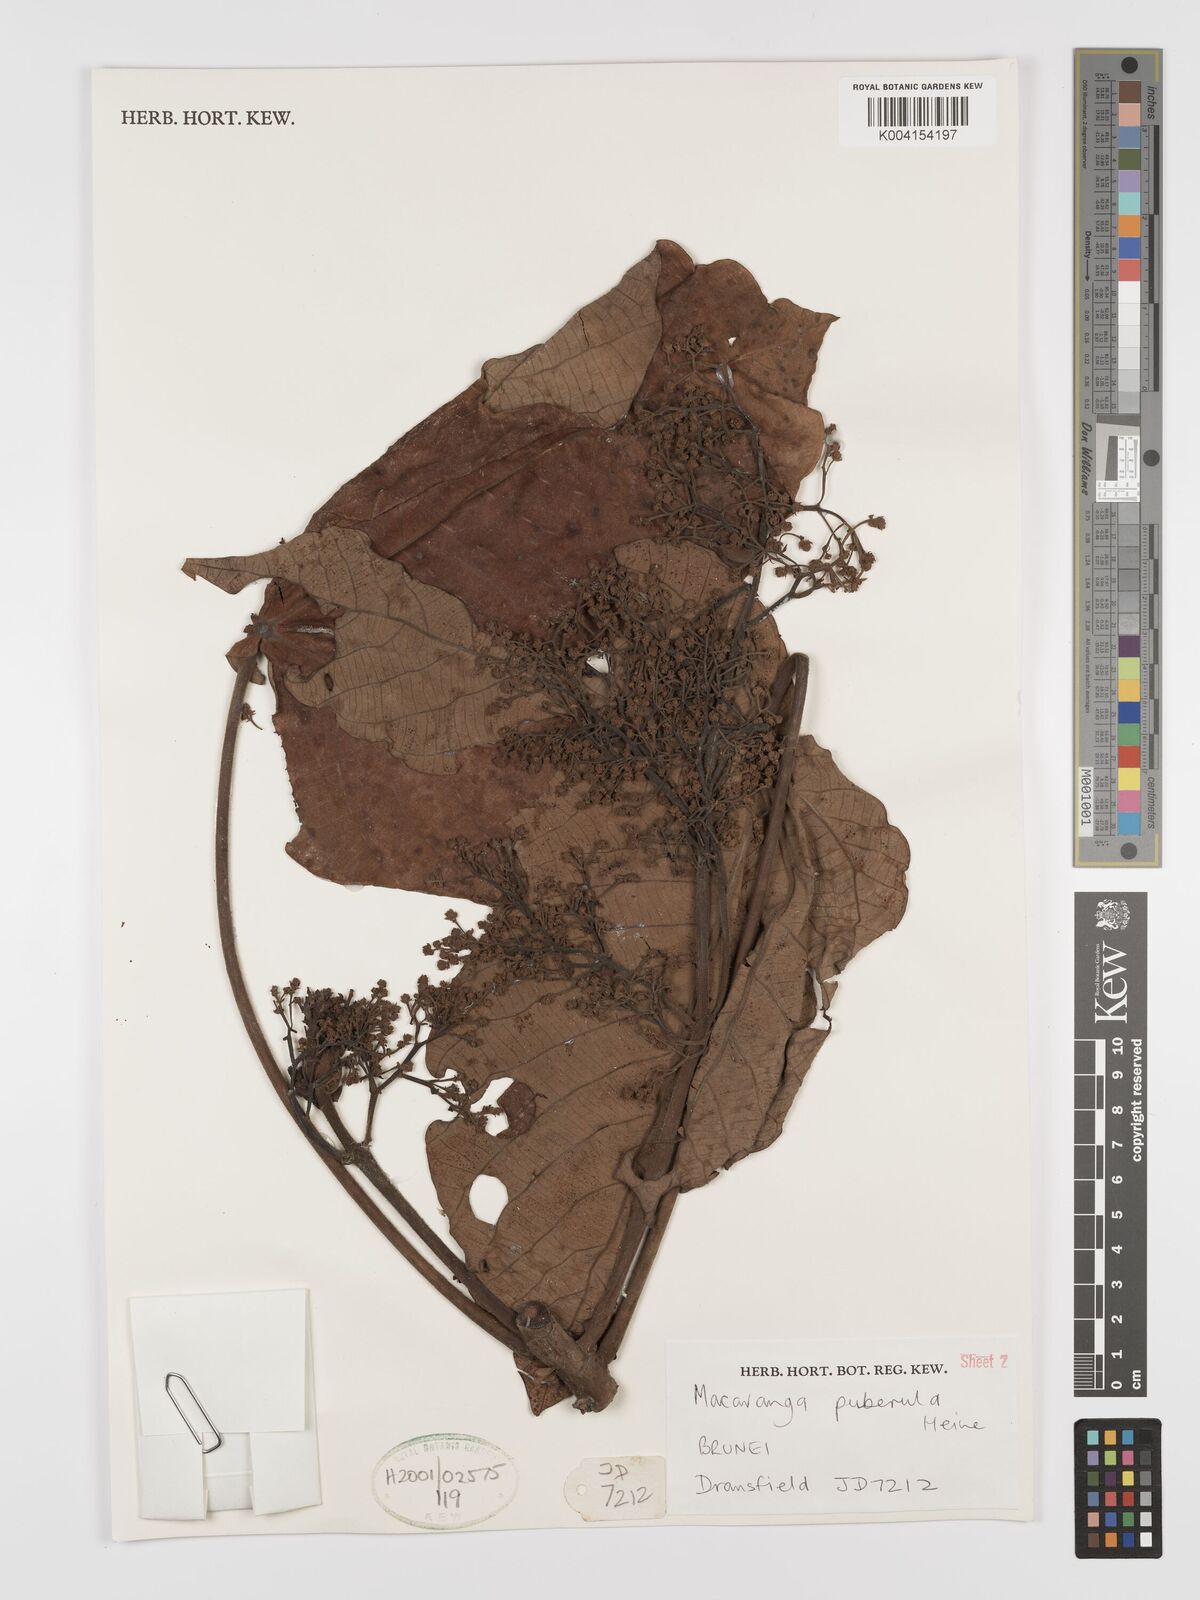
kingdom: Plantae
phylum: Tracheophyta
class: Magnoliopsida
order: Malpighiales
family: Euphorbiaceae
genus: Macaranga
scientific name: Macaranga puberula
